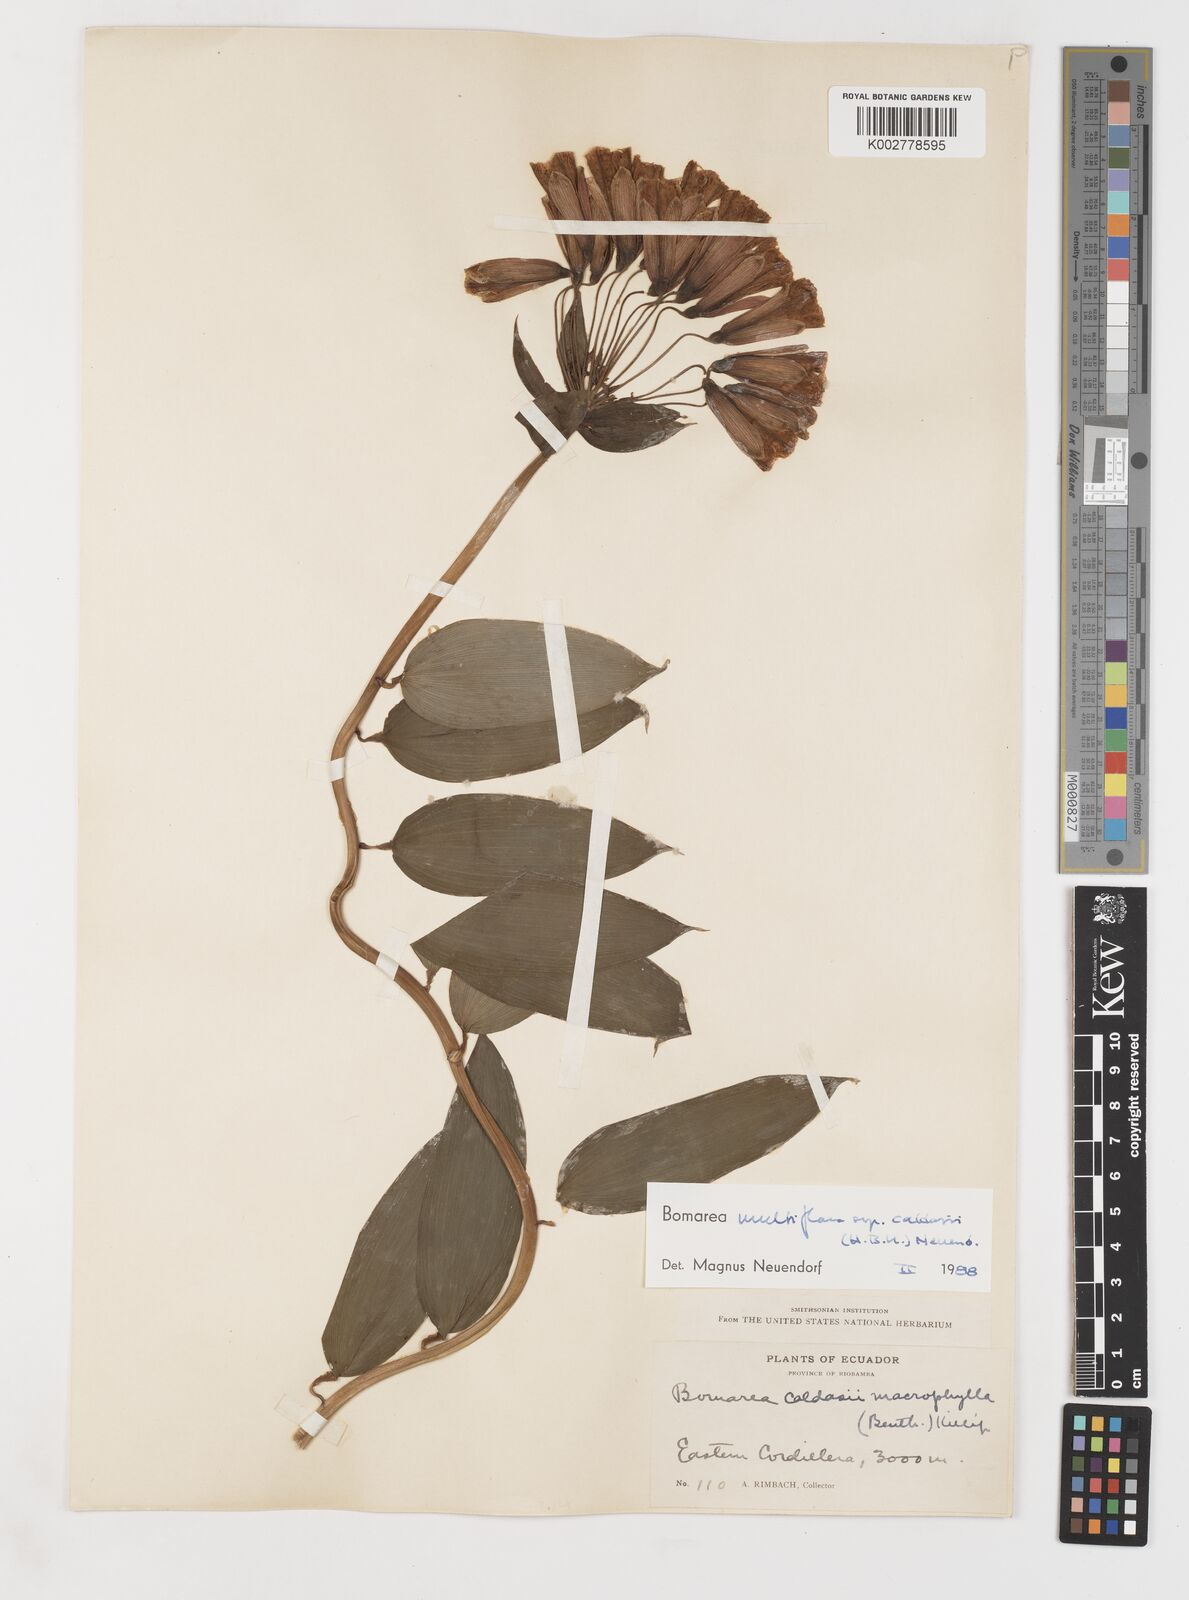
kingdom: Plantae
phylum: Tracheophyta
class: Liliopsida
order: Liliales
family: Alstroemeriaceae
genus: Bomarea
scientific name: Bomarea multiflora
